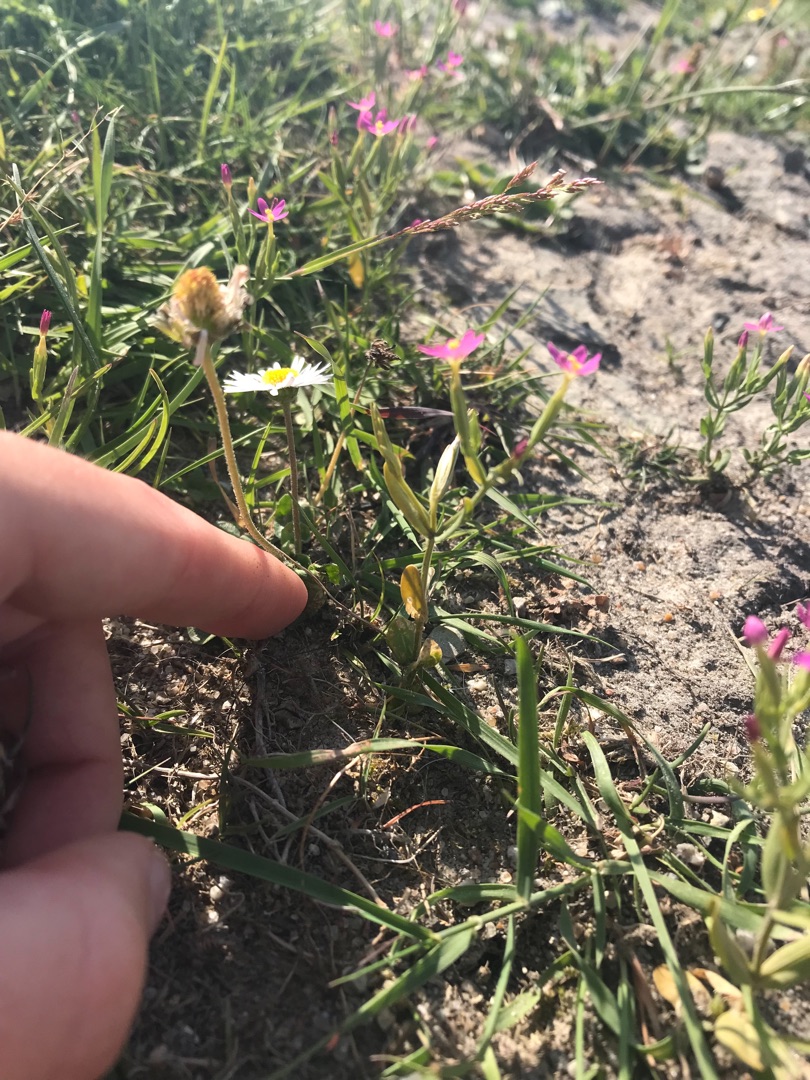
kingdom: Plantae
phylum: Tracheophyta
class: Magnoliopsida
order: Gentianales
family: Gentianaceae
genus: Centaurium
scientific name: Centaurium pulchellum
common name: Liden tusindgylden
